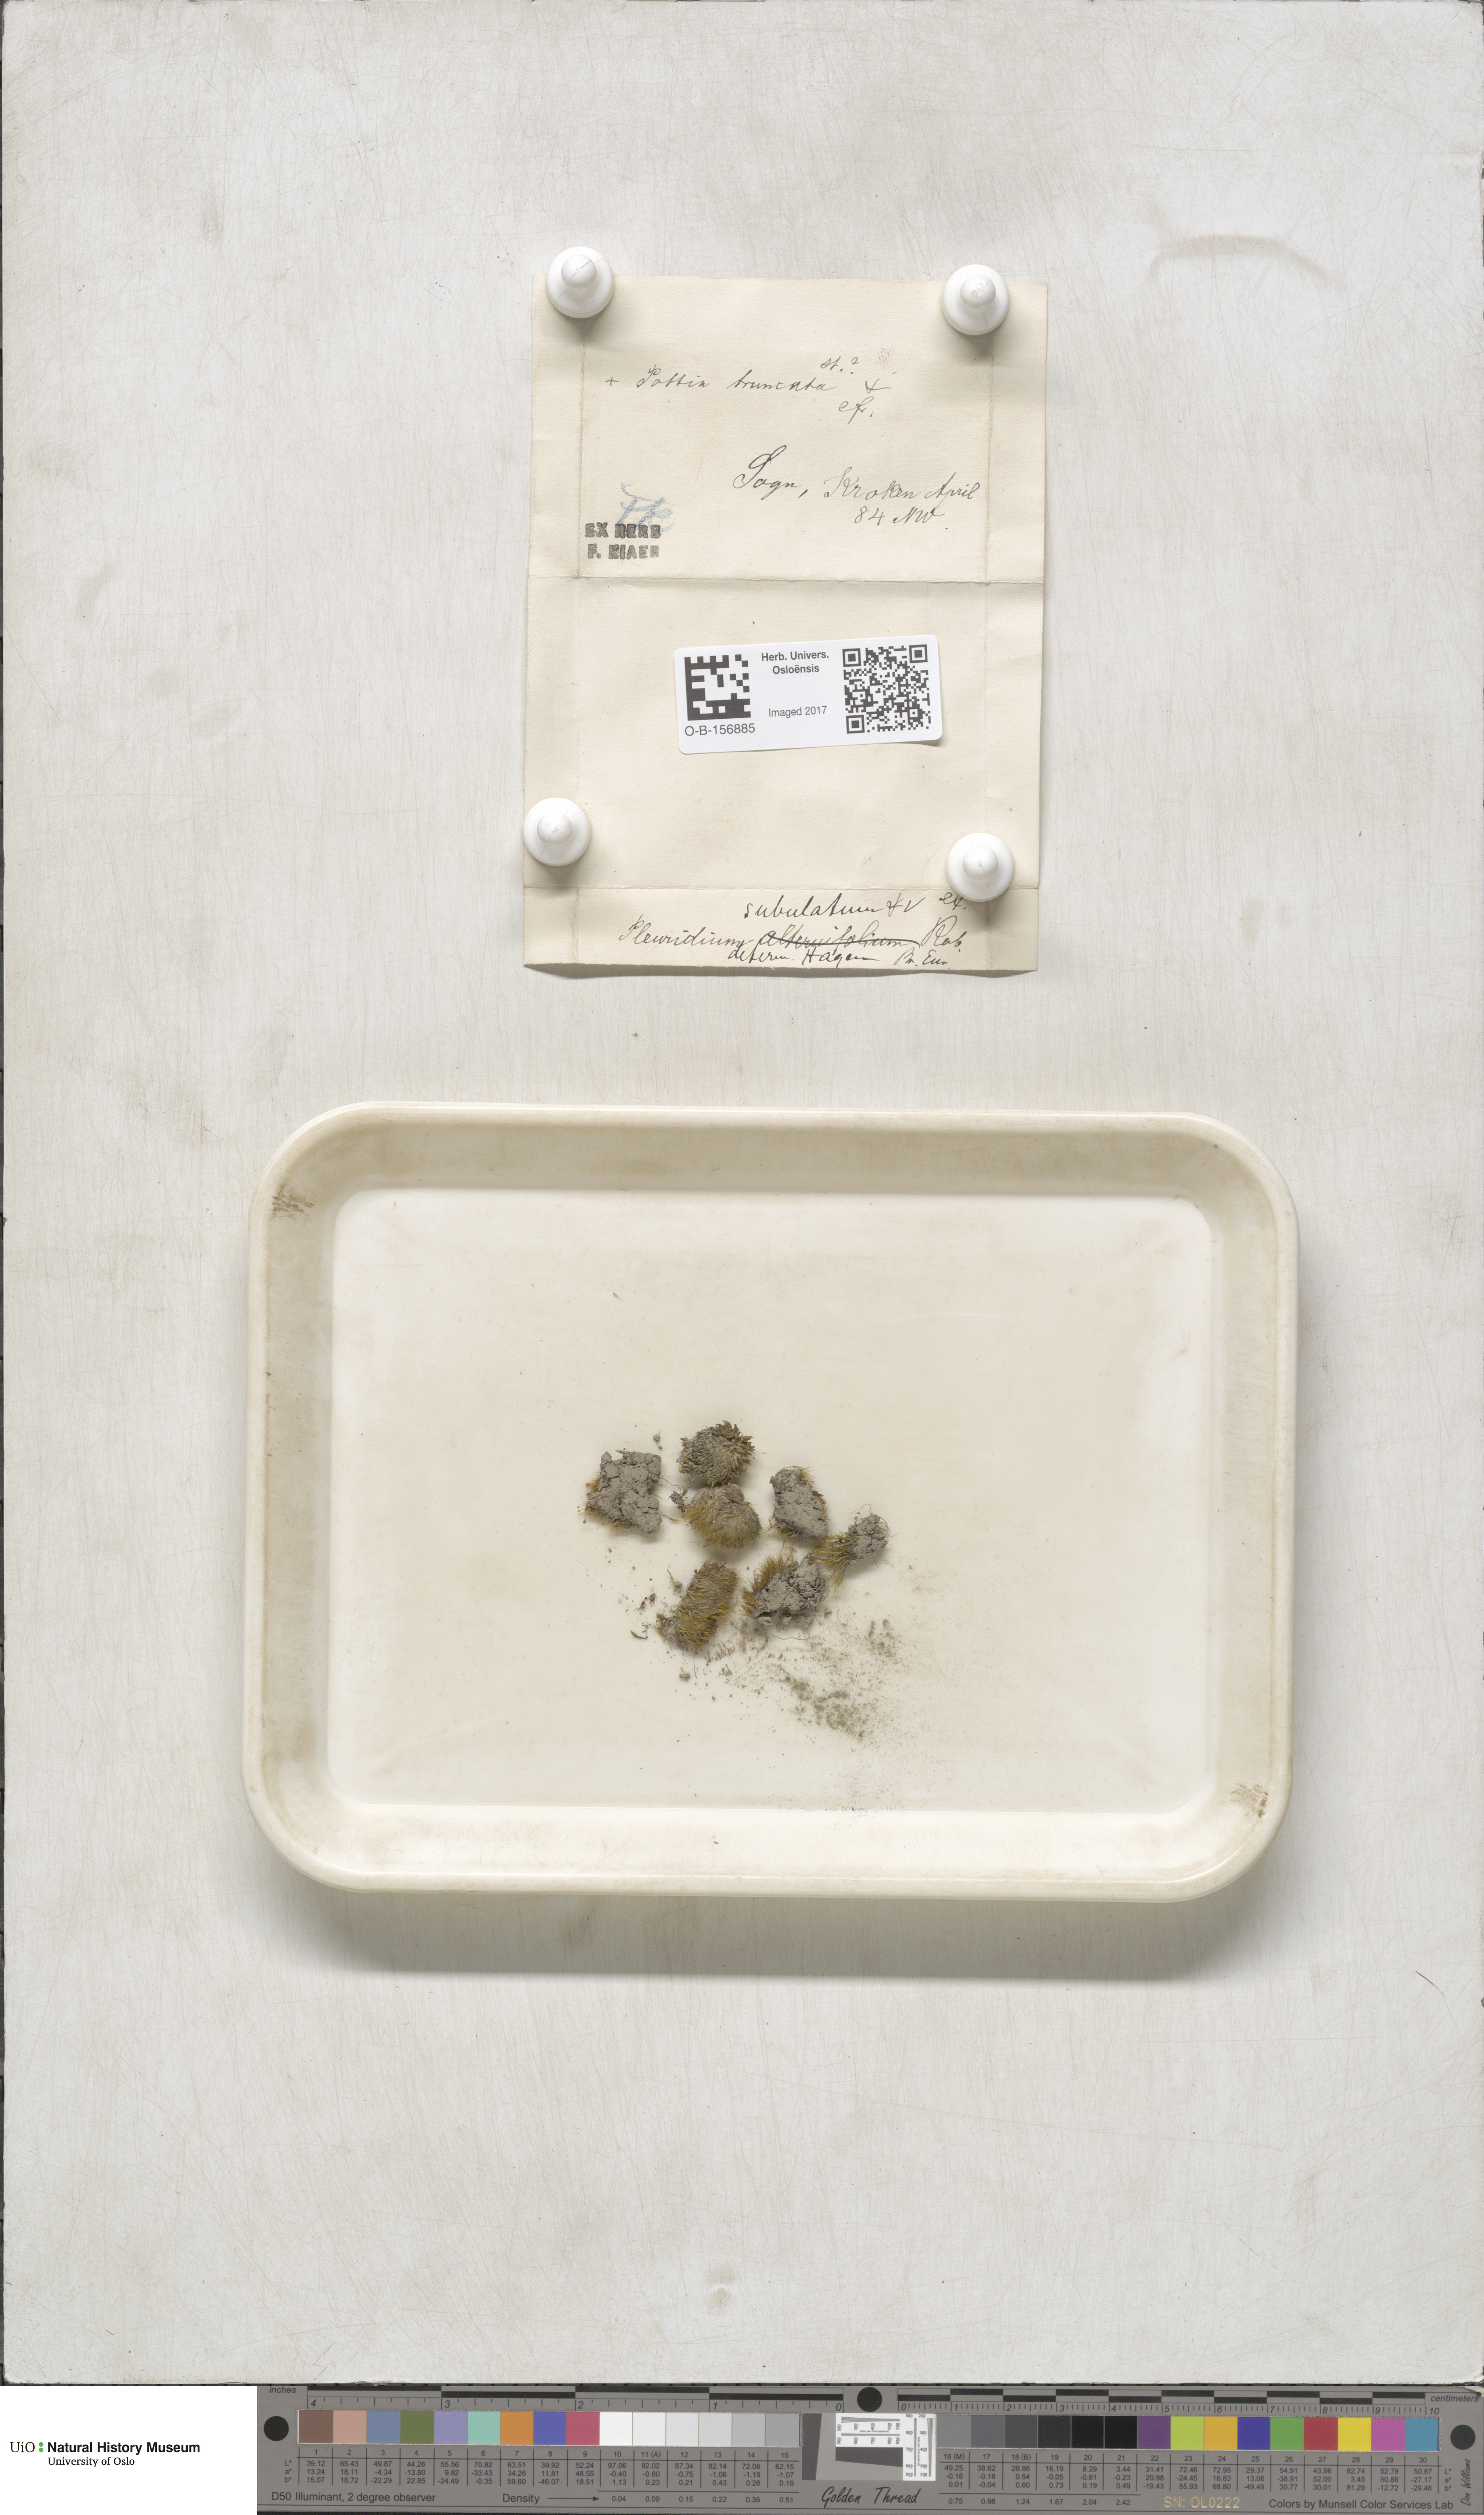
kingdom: Plantae
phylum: Bryophyta
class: Bryopsida
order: Dicranales
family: Ditrichaceae
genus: Pleuridium
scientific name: Pleuridium subulatum
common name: Awl-leaved earth-moss
